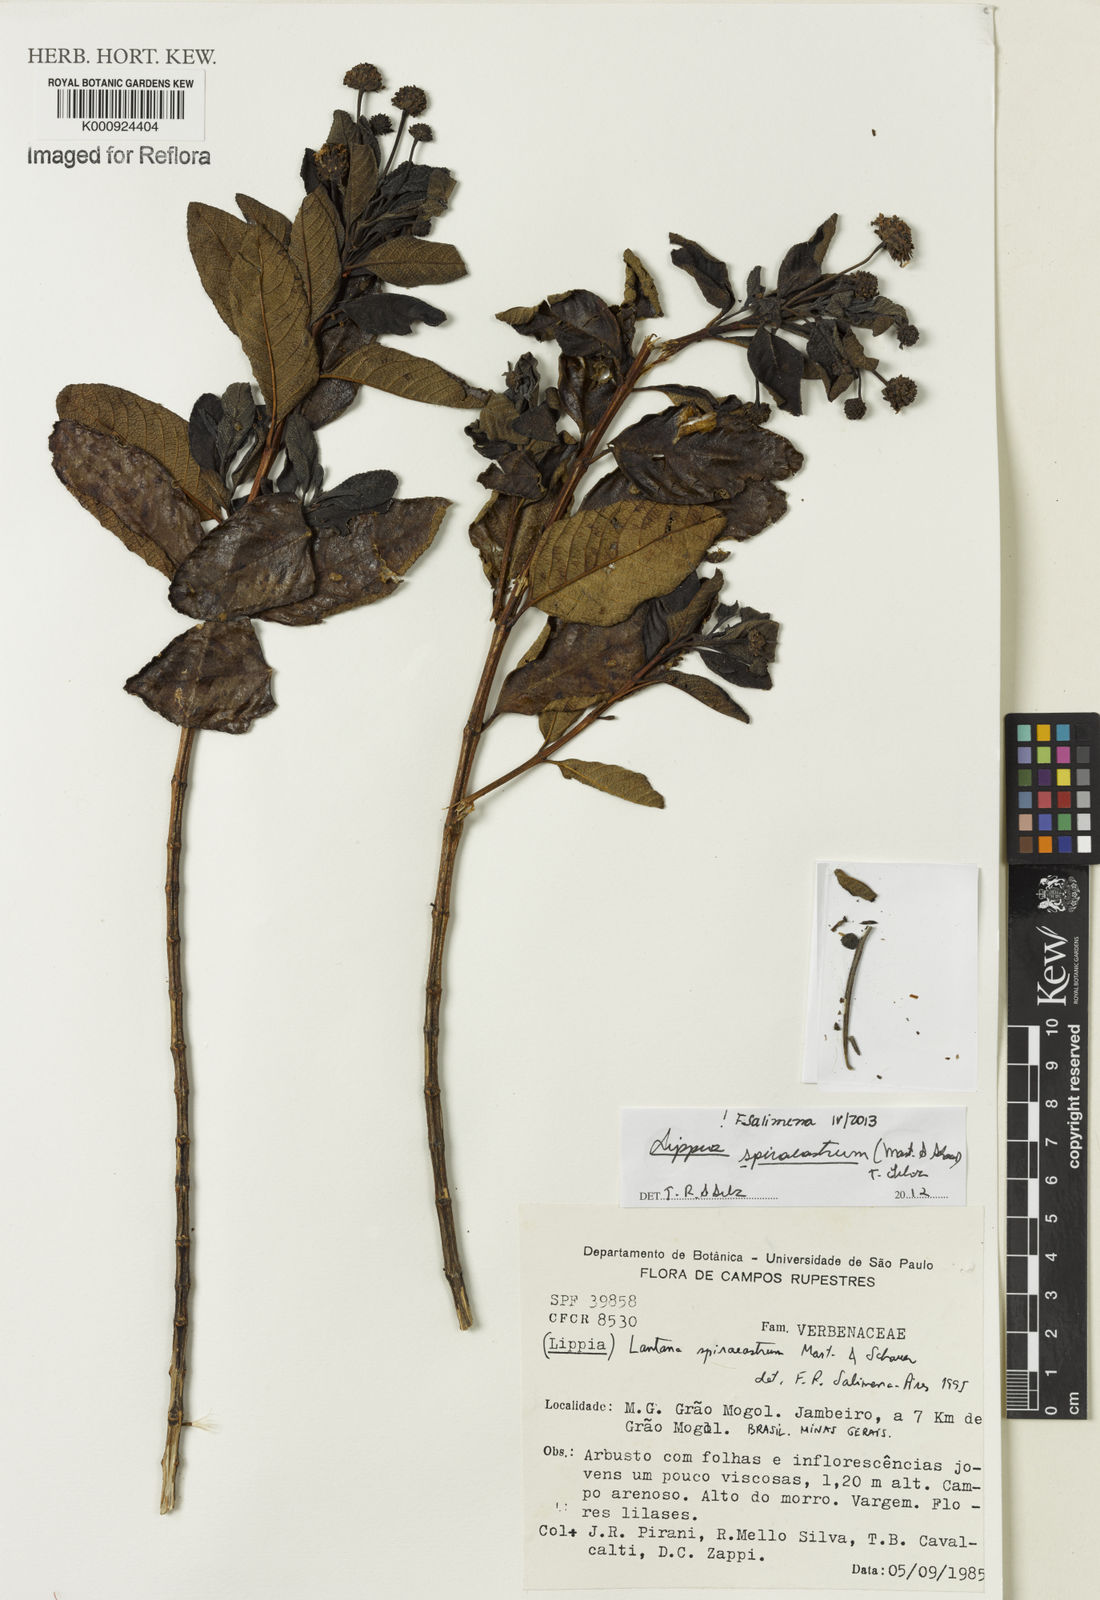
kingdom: Plantae
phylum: Tracheophyta
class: Magnoliopsida
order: Lamiales
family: Verbenaceae
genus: Lippia
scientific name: Lippia spiraeastrum
